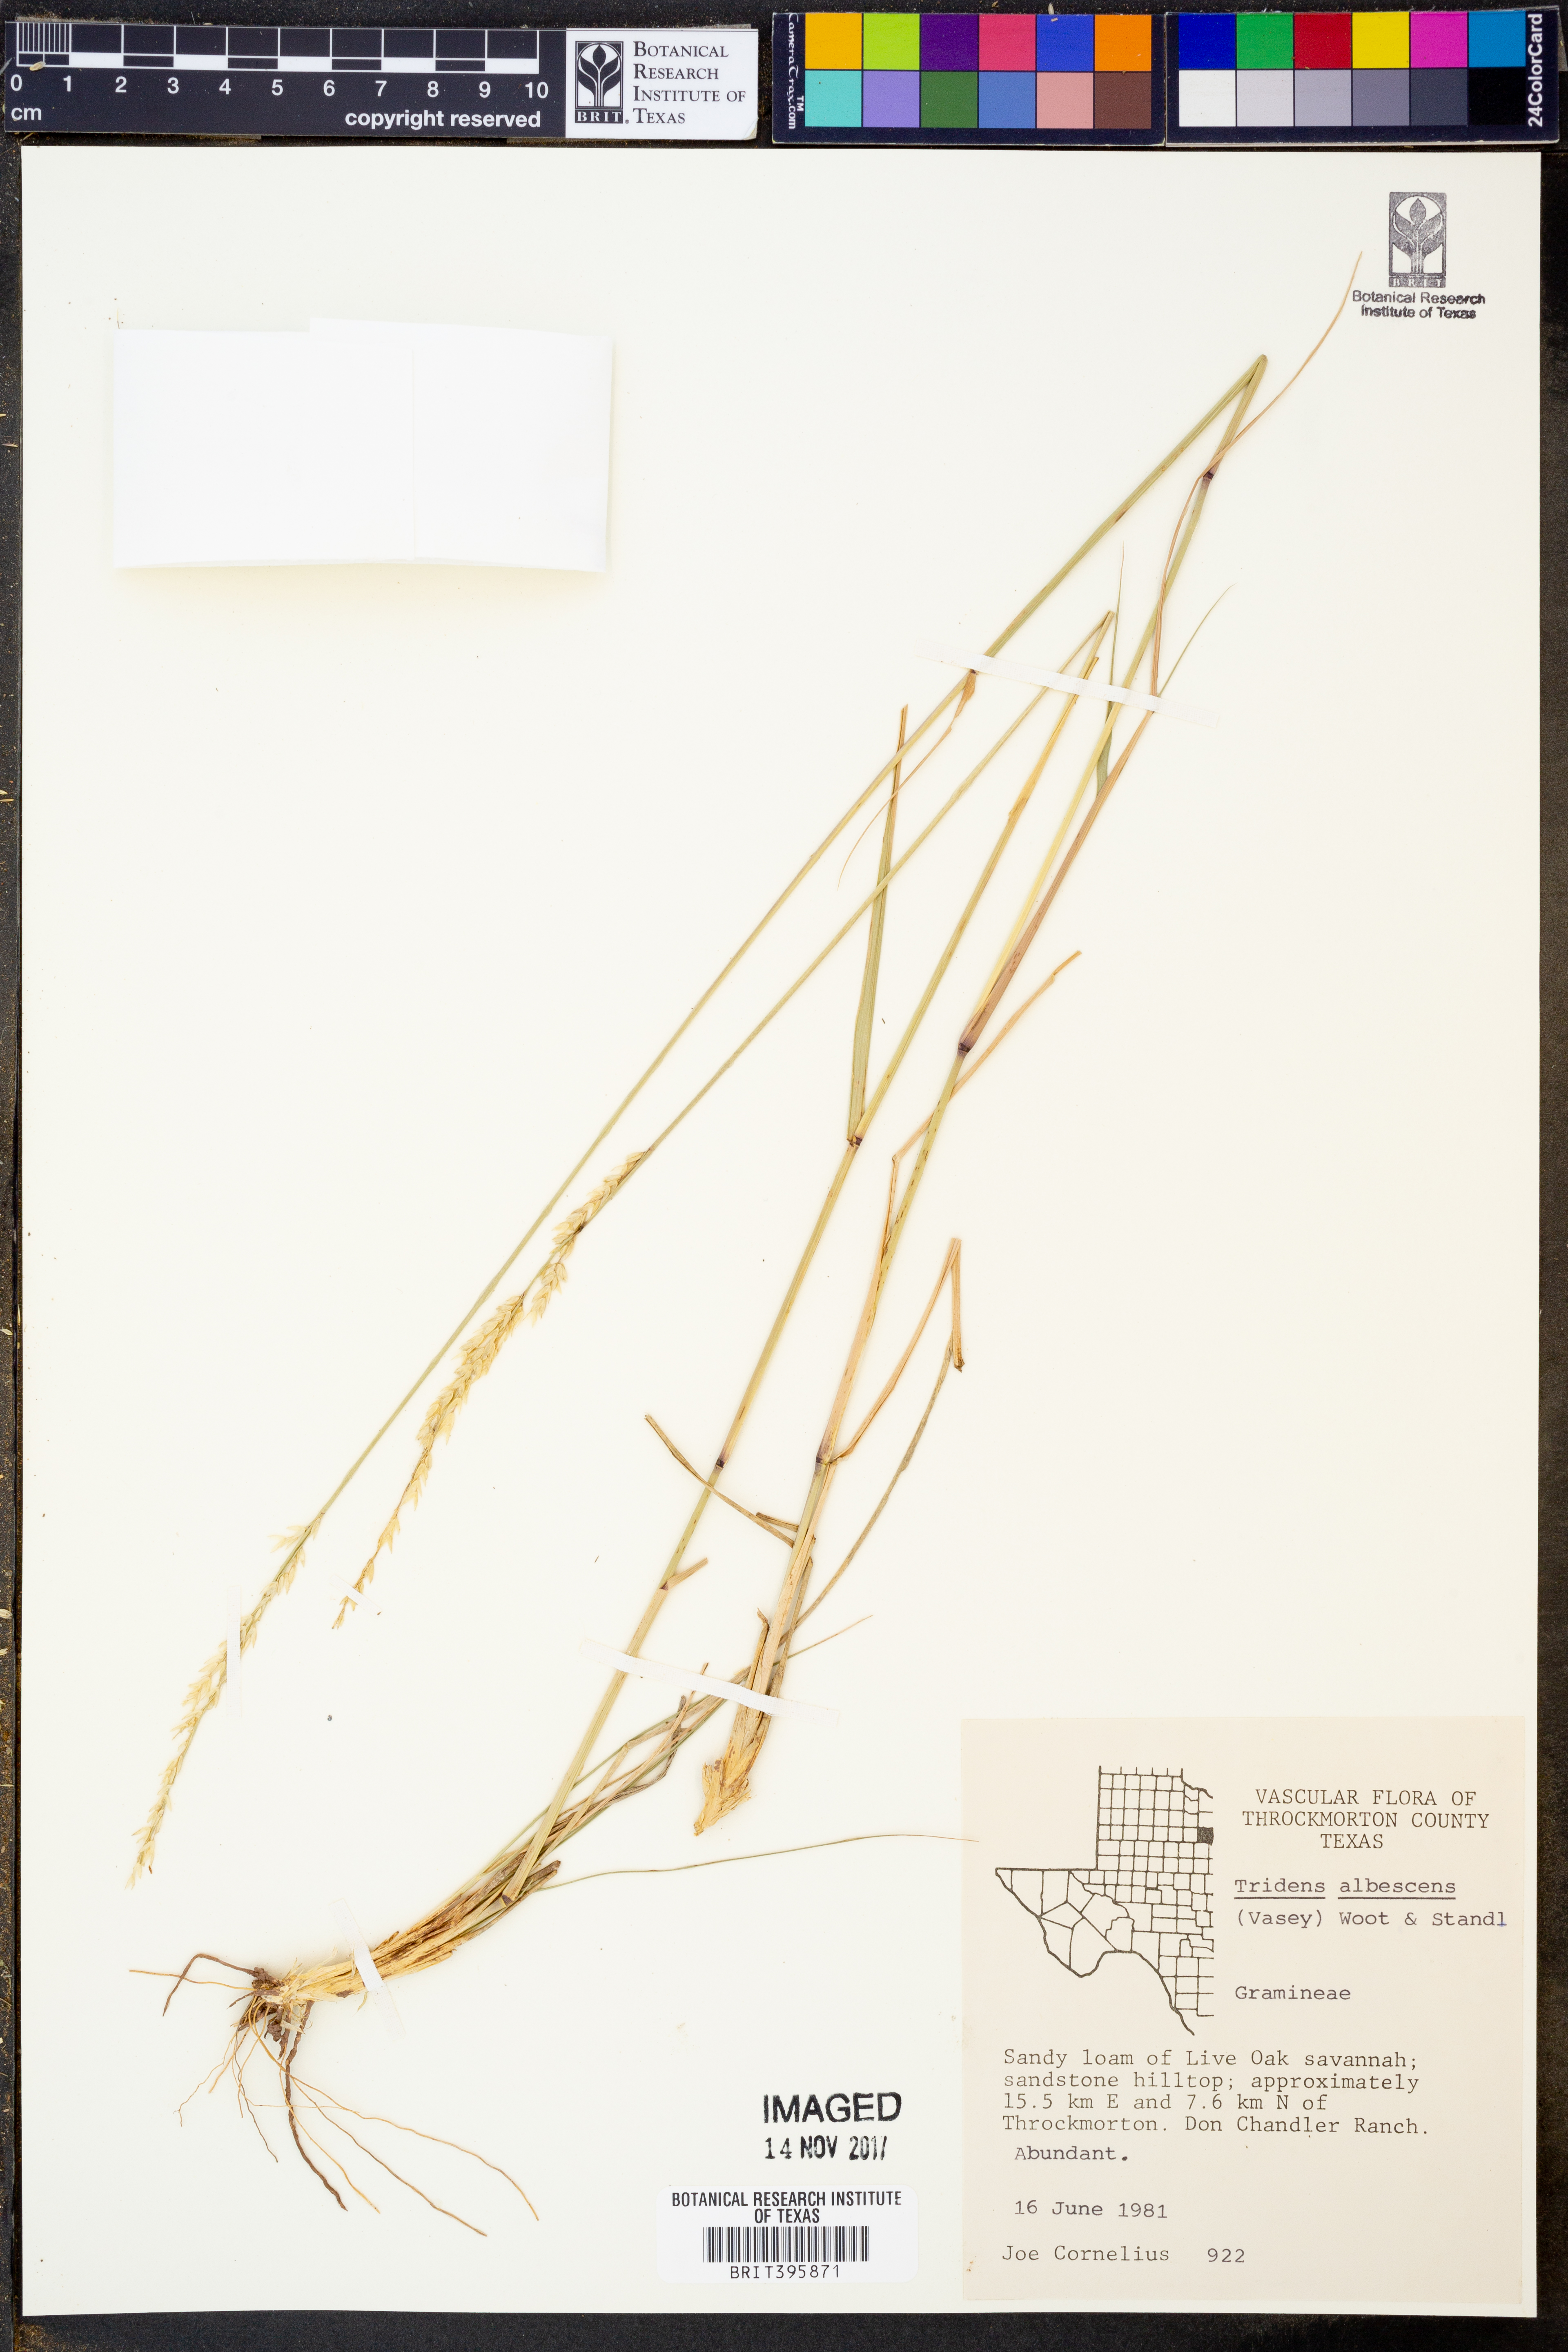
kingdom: Plantae
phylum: Tracheophyta
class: Liliopsida
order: Poales
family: Poaceae
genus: Tridens
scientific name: Tridens albescens
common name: White tridens
